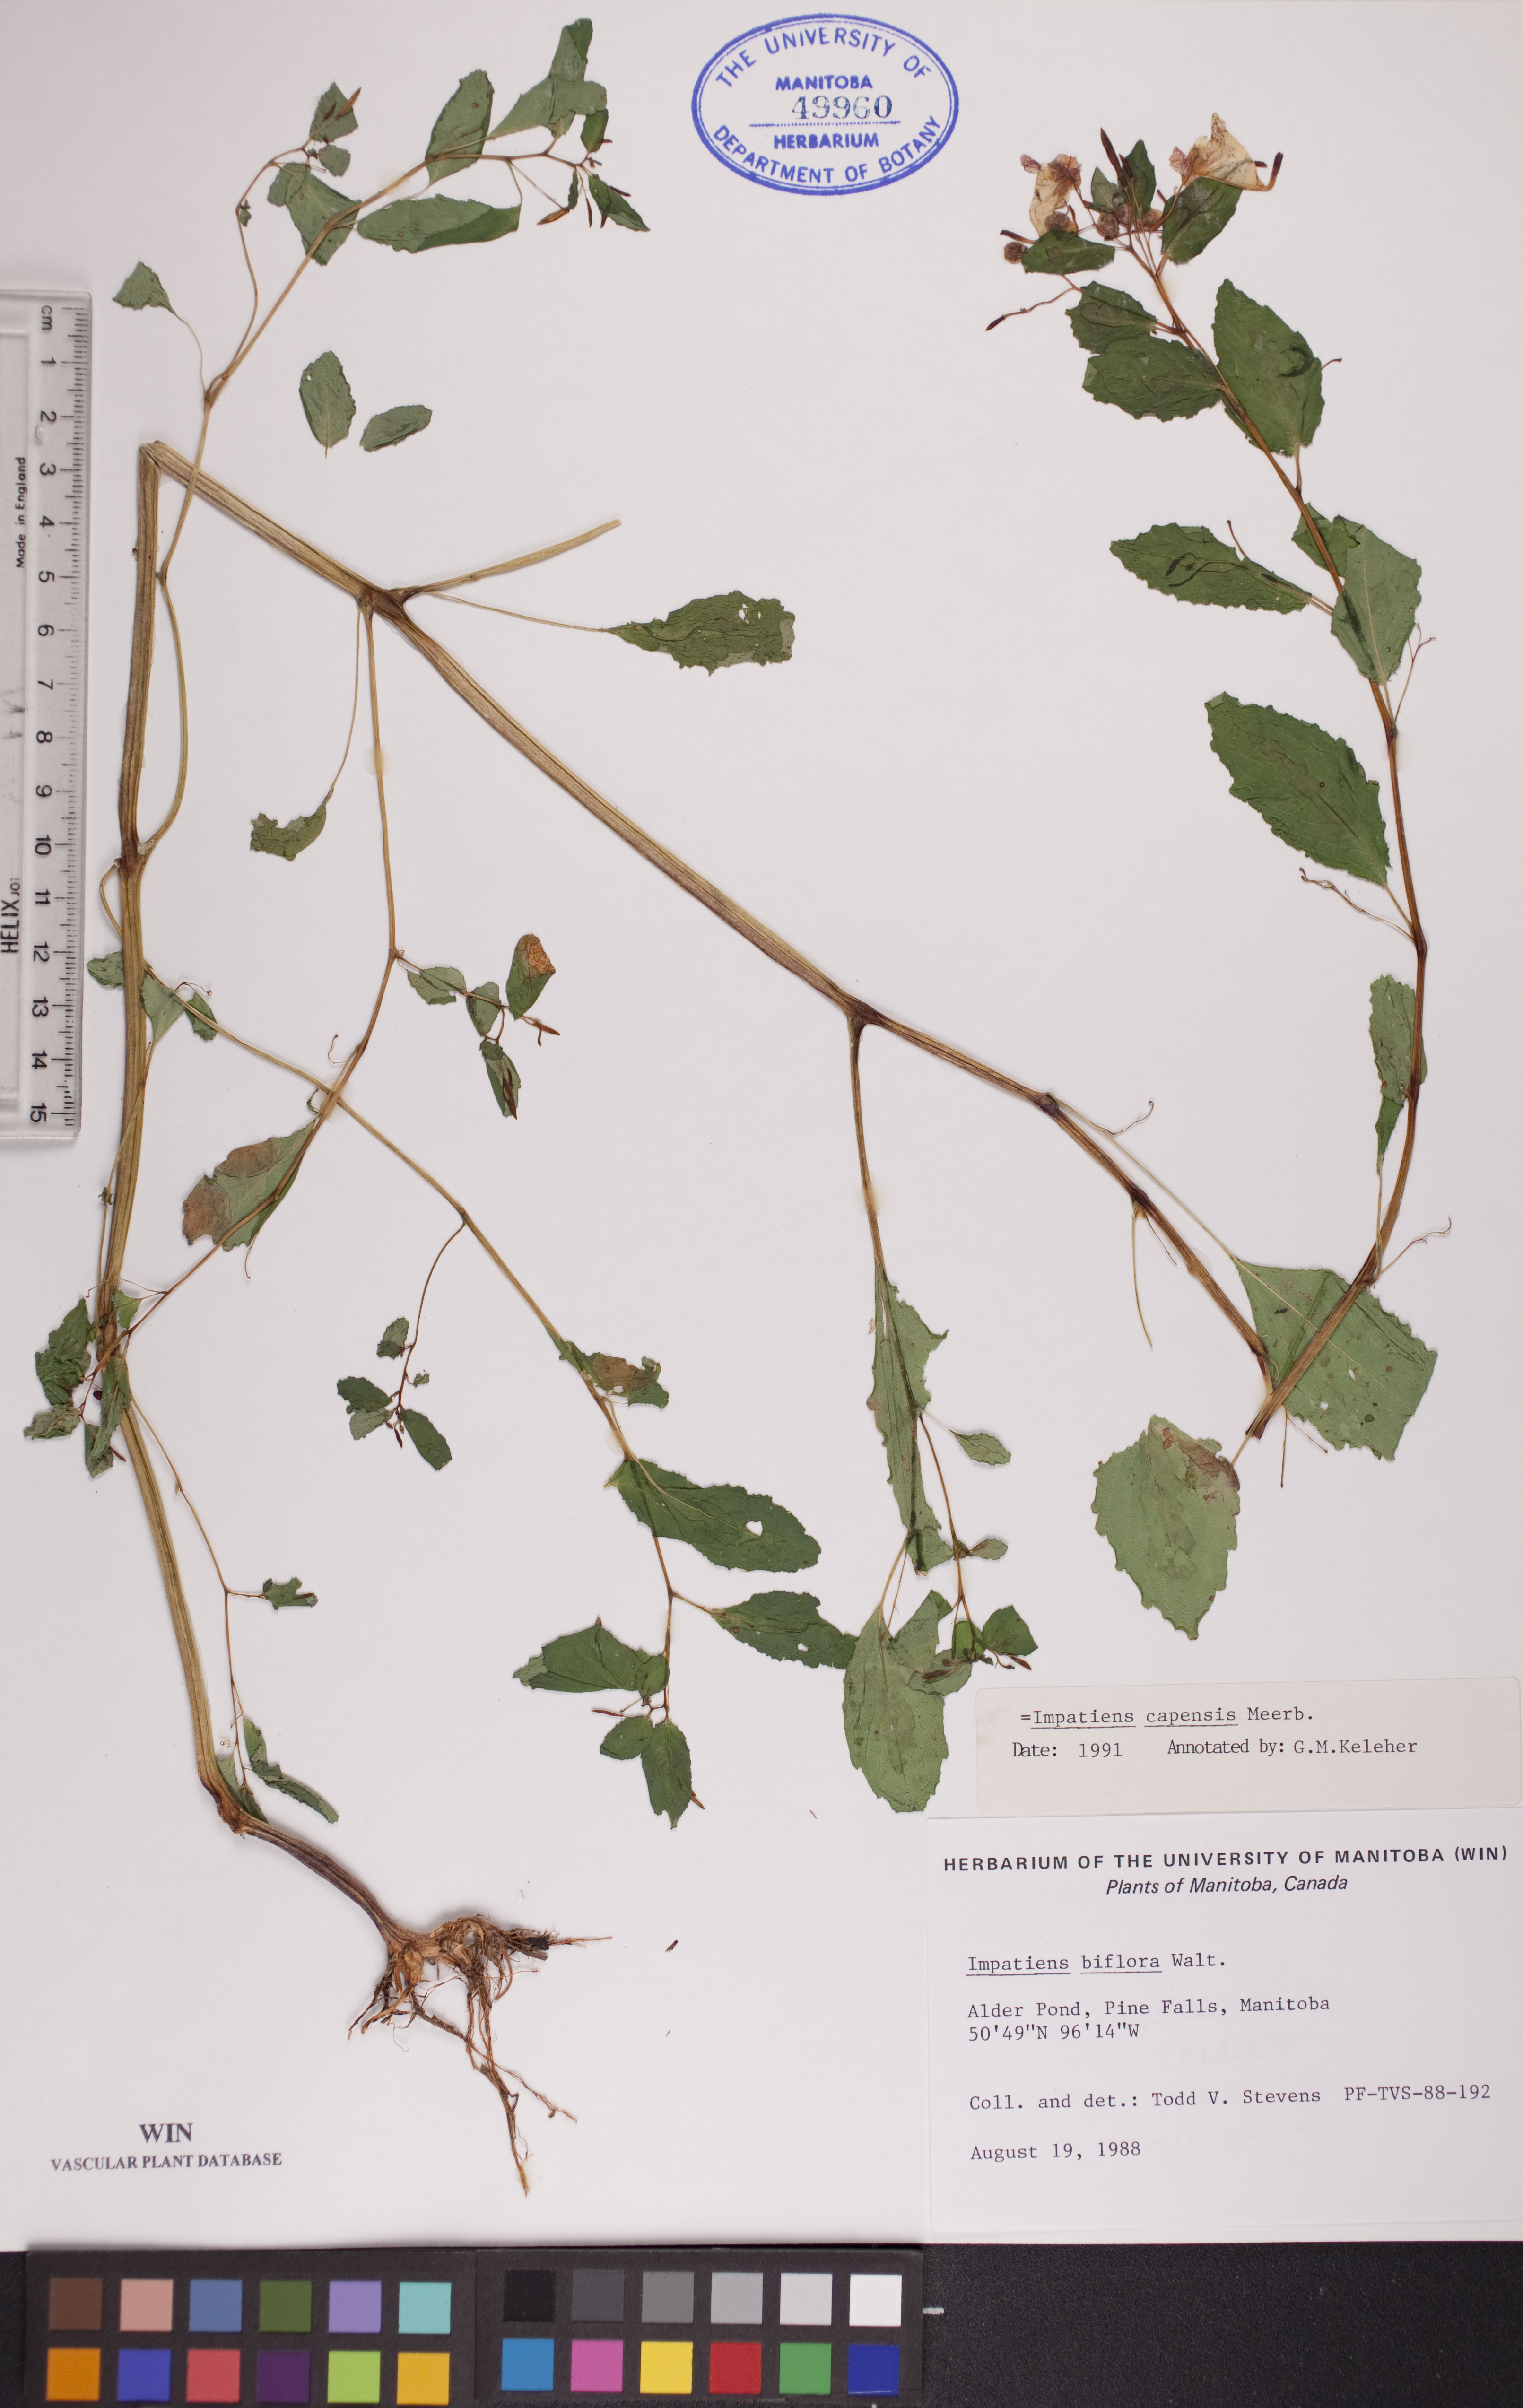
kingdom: Plantae
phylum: Tracheophyta
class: Magnoliopsida
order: Ericales
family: Balsaminaceae
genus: Impatiens
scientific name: Impatiens capensis
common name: Orange balsam
